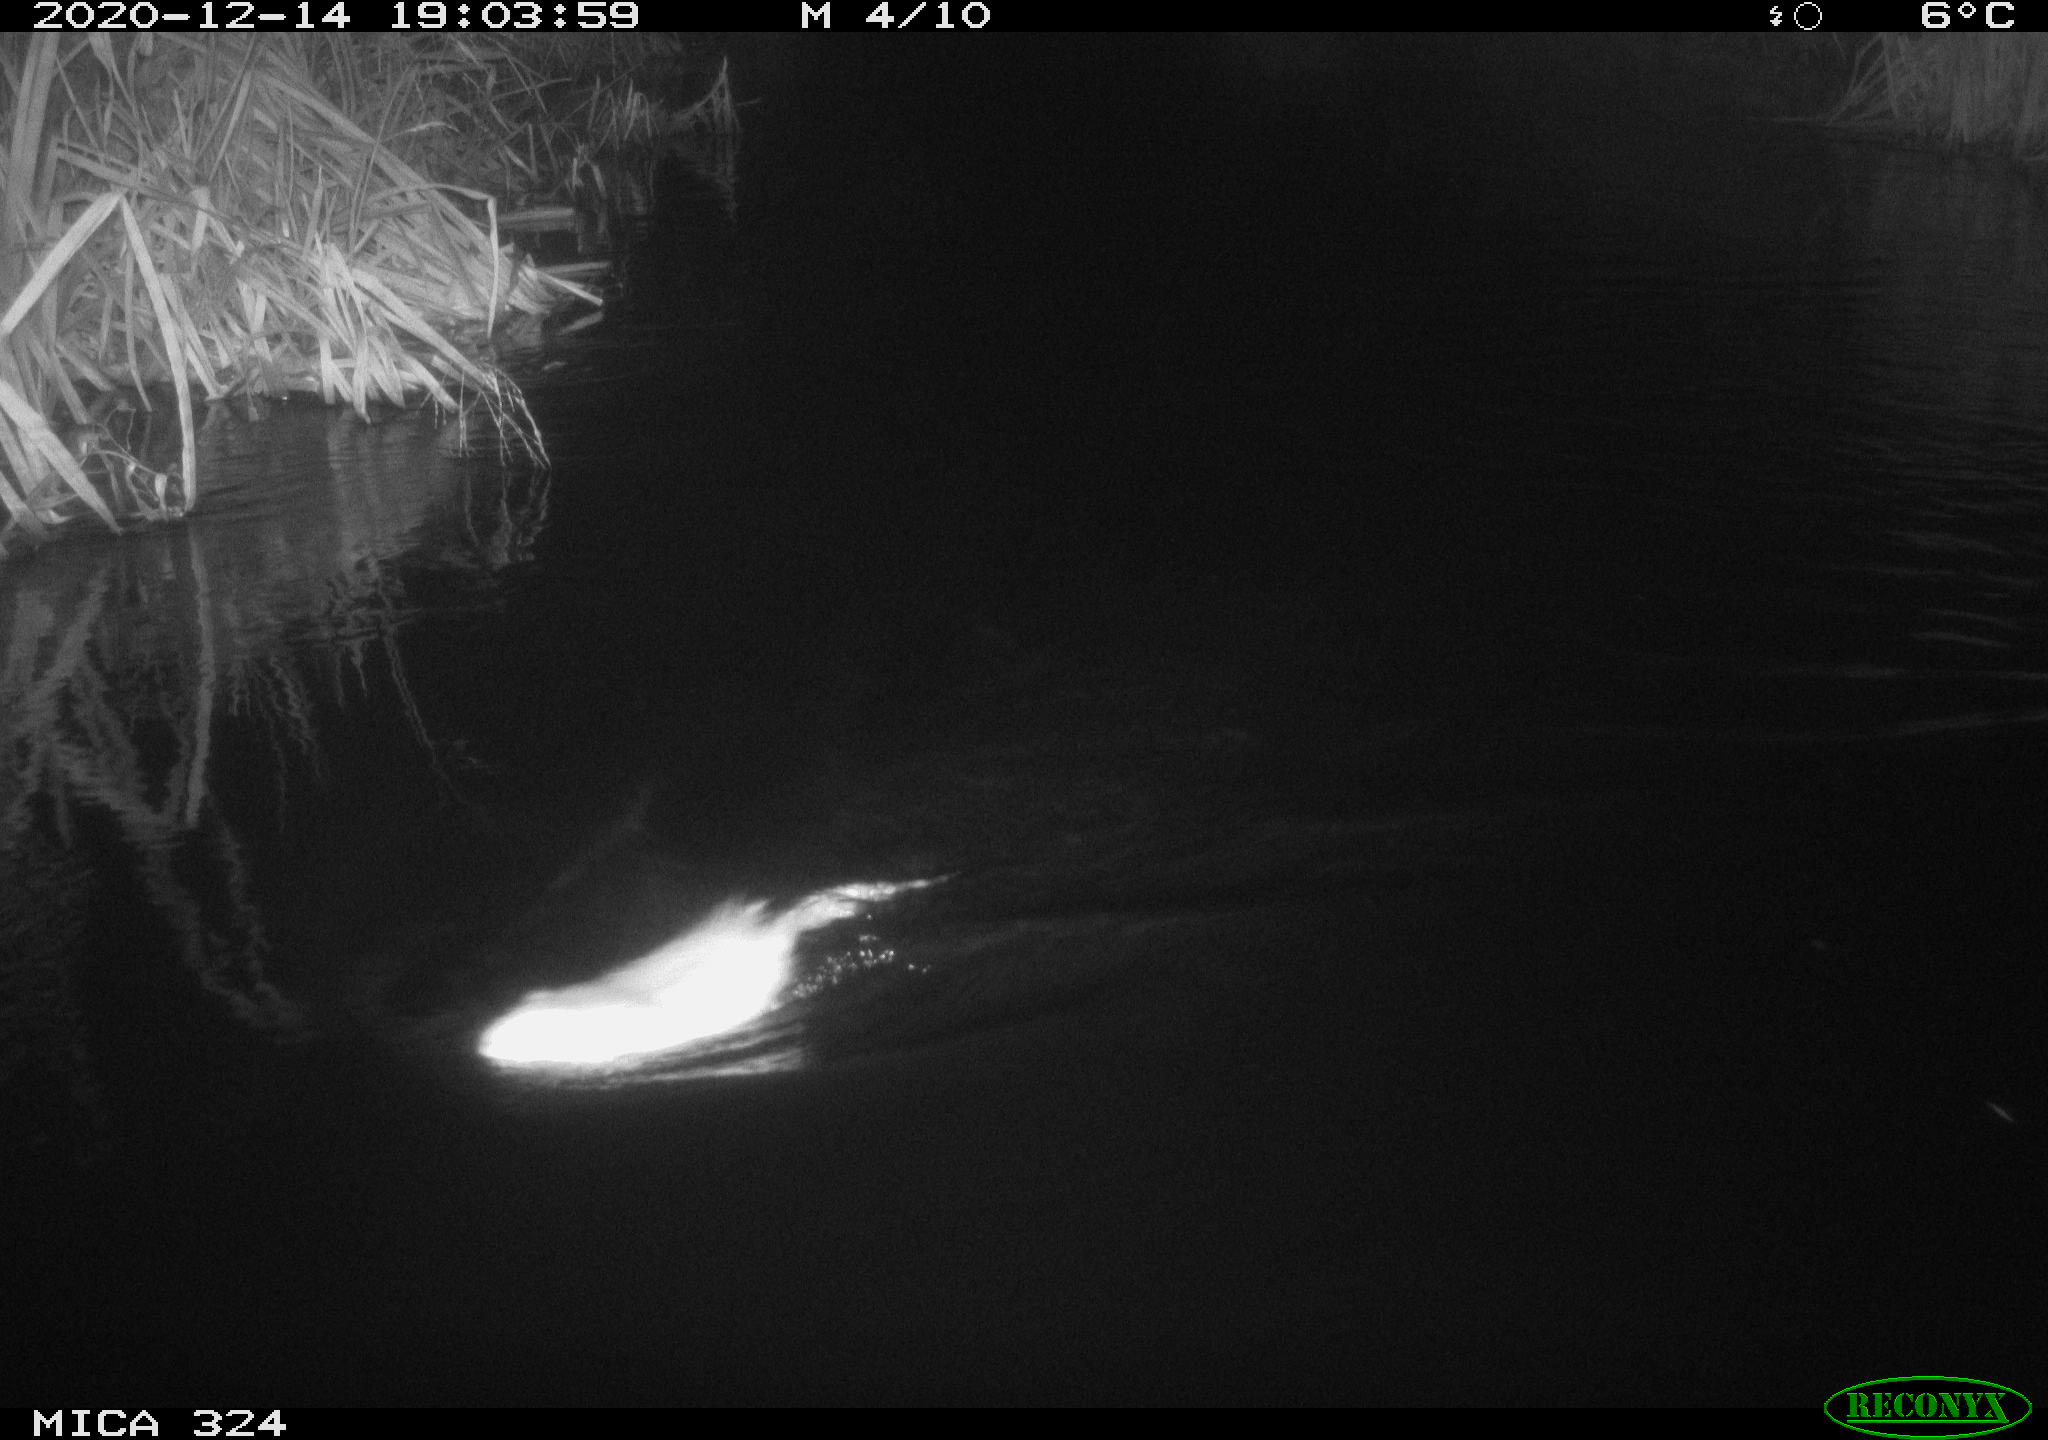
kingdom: Animalia
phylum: Chordata
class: Mammalia
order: Rodentia
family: Cricetidae
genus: Ondatra
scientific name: Ondatra zibethicus
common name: Muskrat
